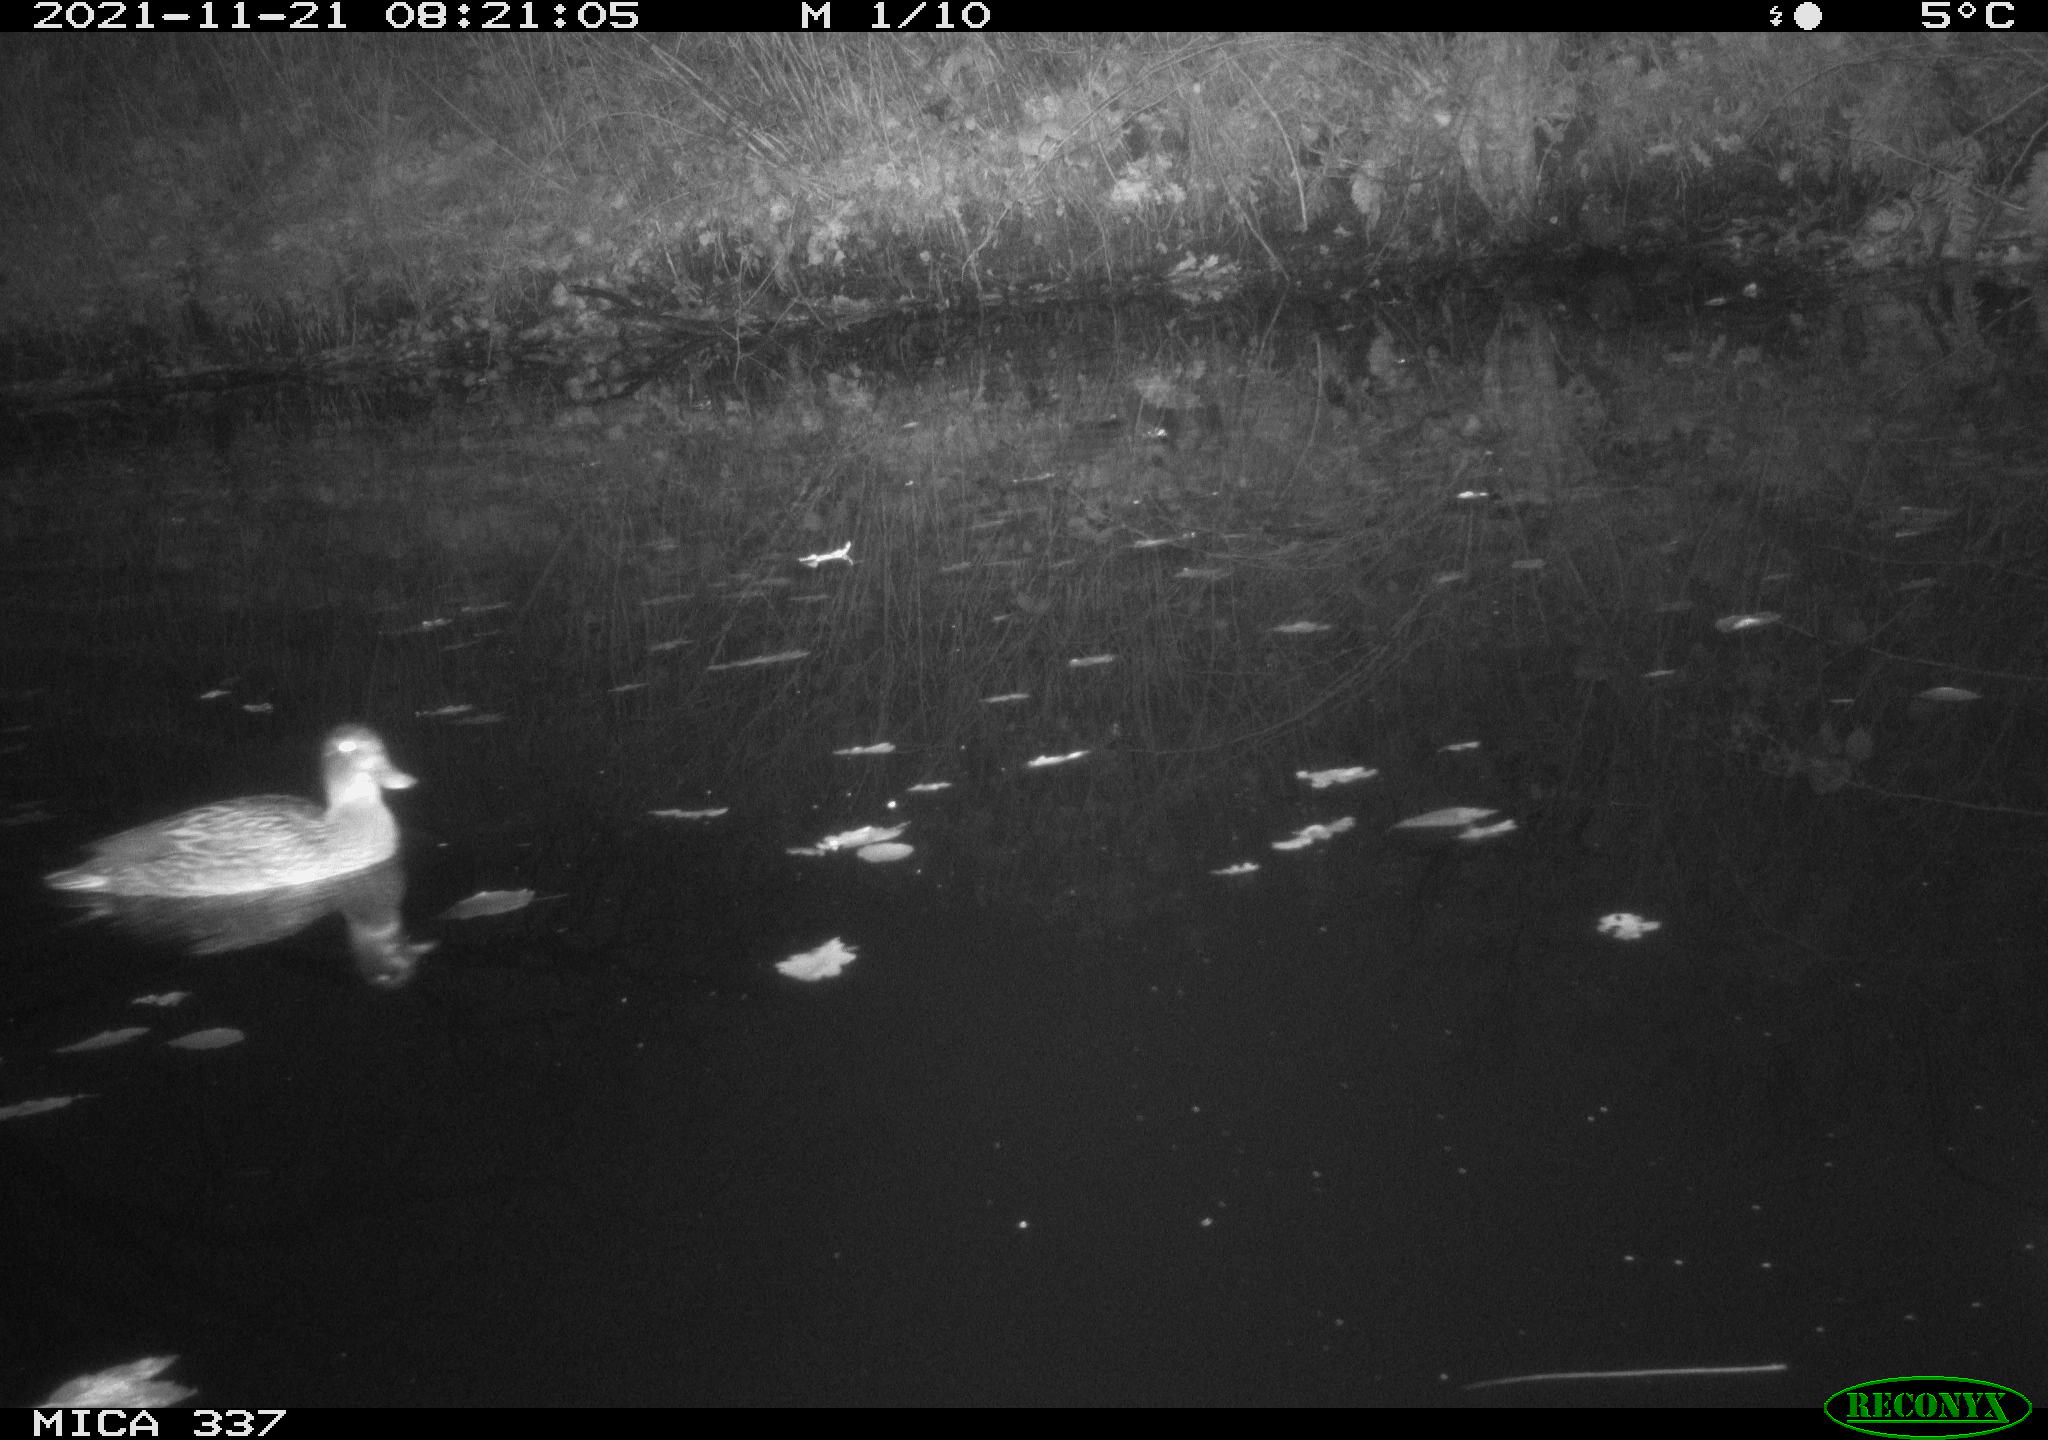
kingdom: Animalia
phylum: Chordata
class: Aves
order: Anseriformes
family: Anatidae
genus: Anas
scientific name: Anas platyrhynchos
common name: Mallard
